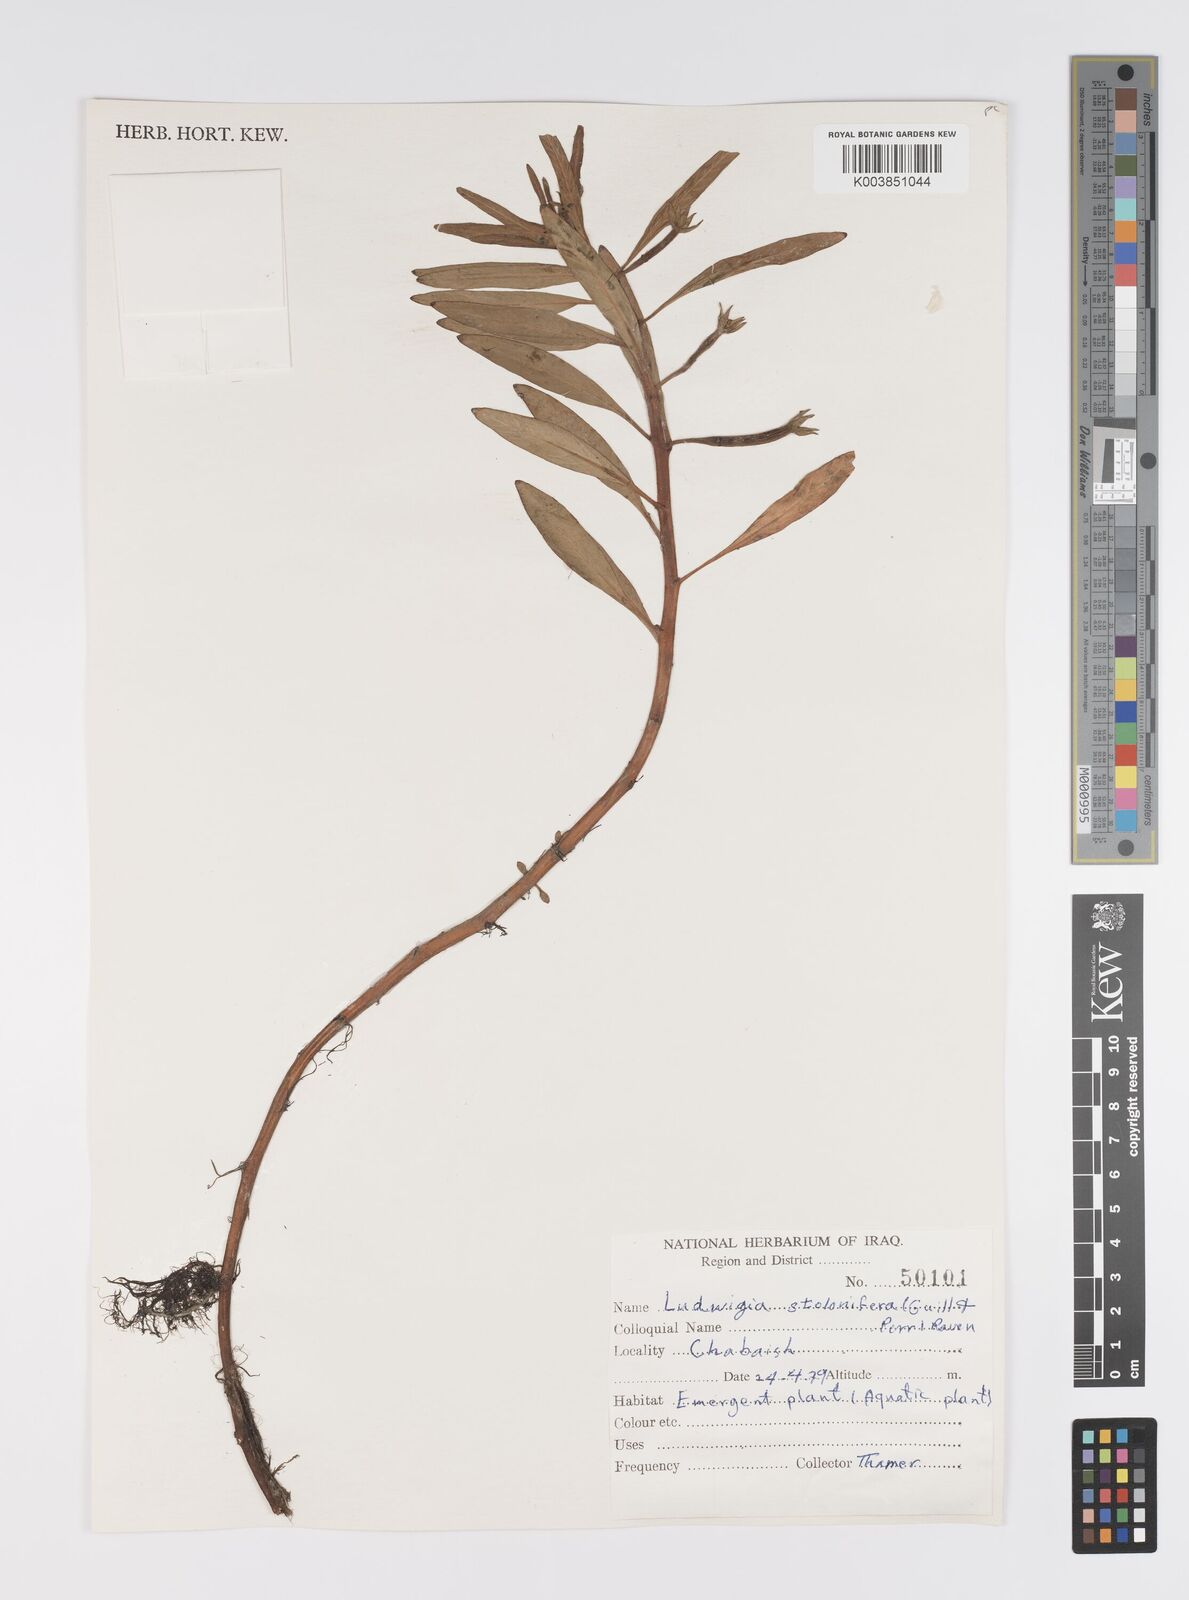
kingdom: Plantae
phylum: Tracheophyta
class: Magnoliopsida
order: Myrtales
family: Onagraceae
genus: Ludwigia
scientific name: Ludwigia adscendens
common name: Creeping water primrose
